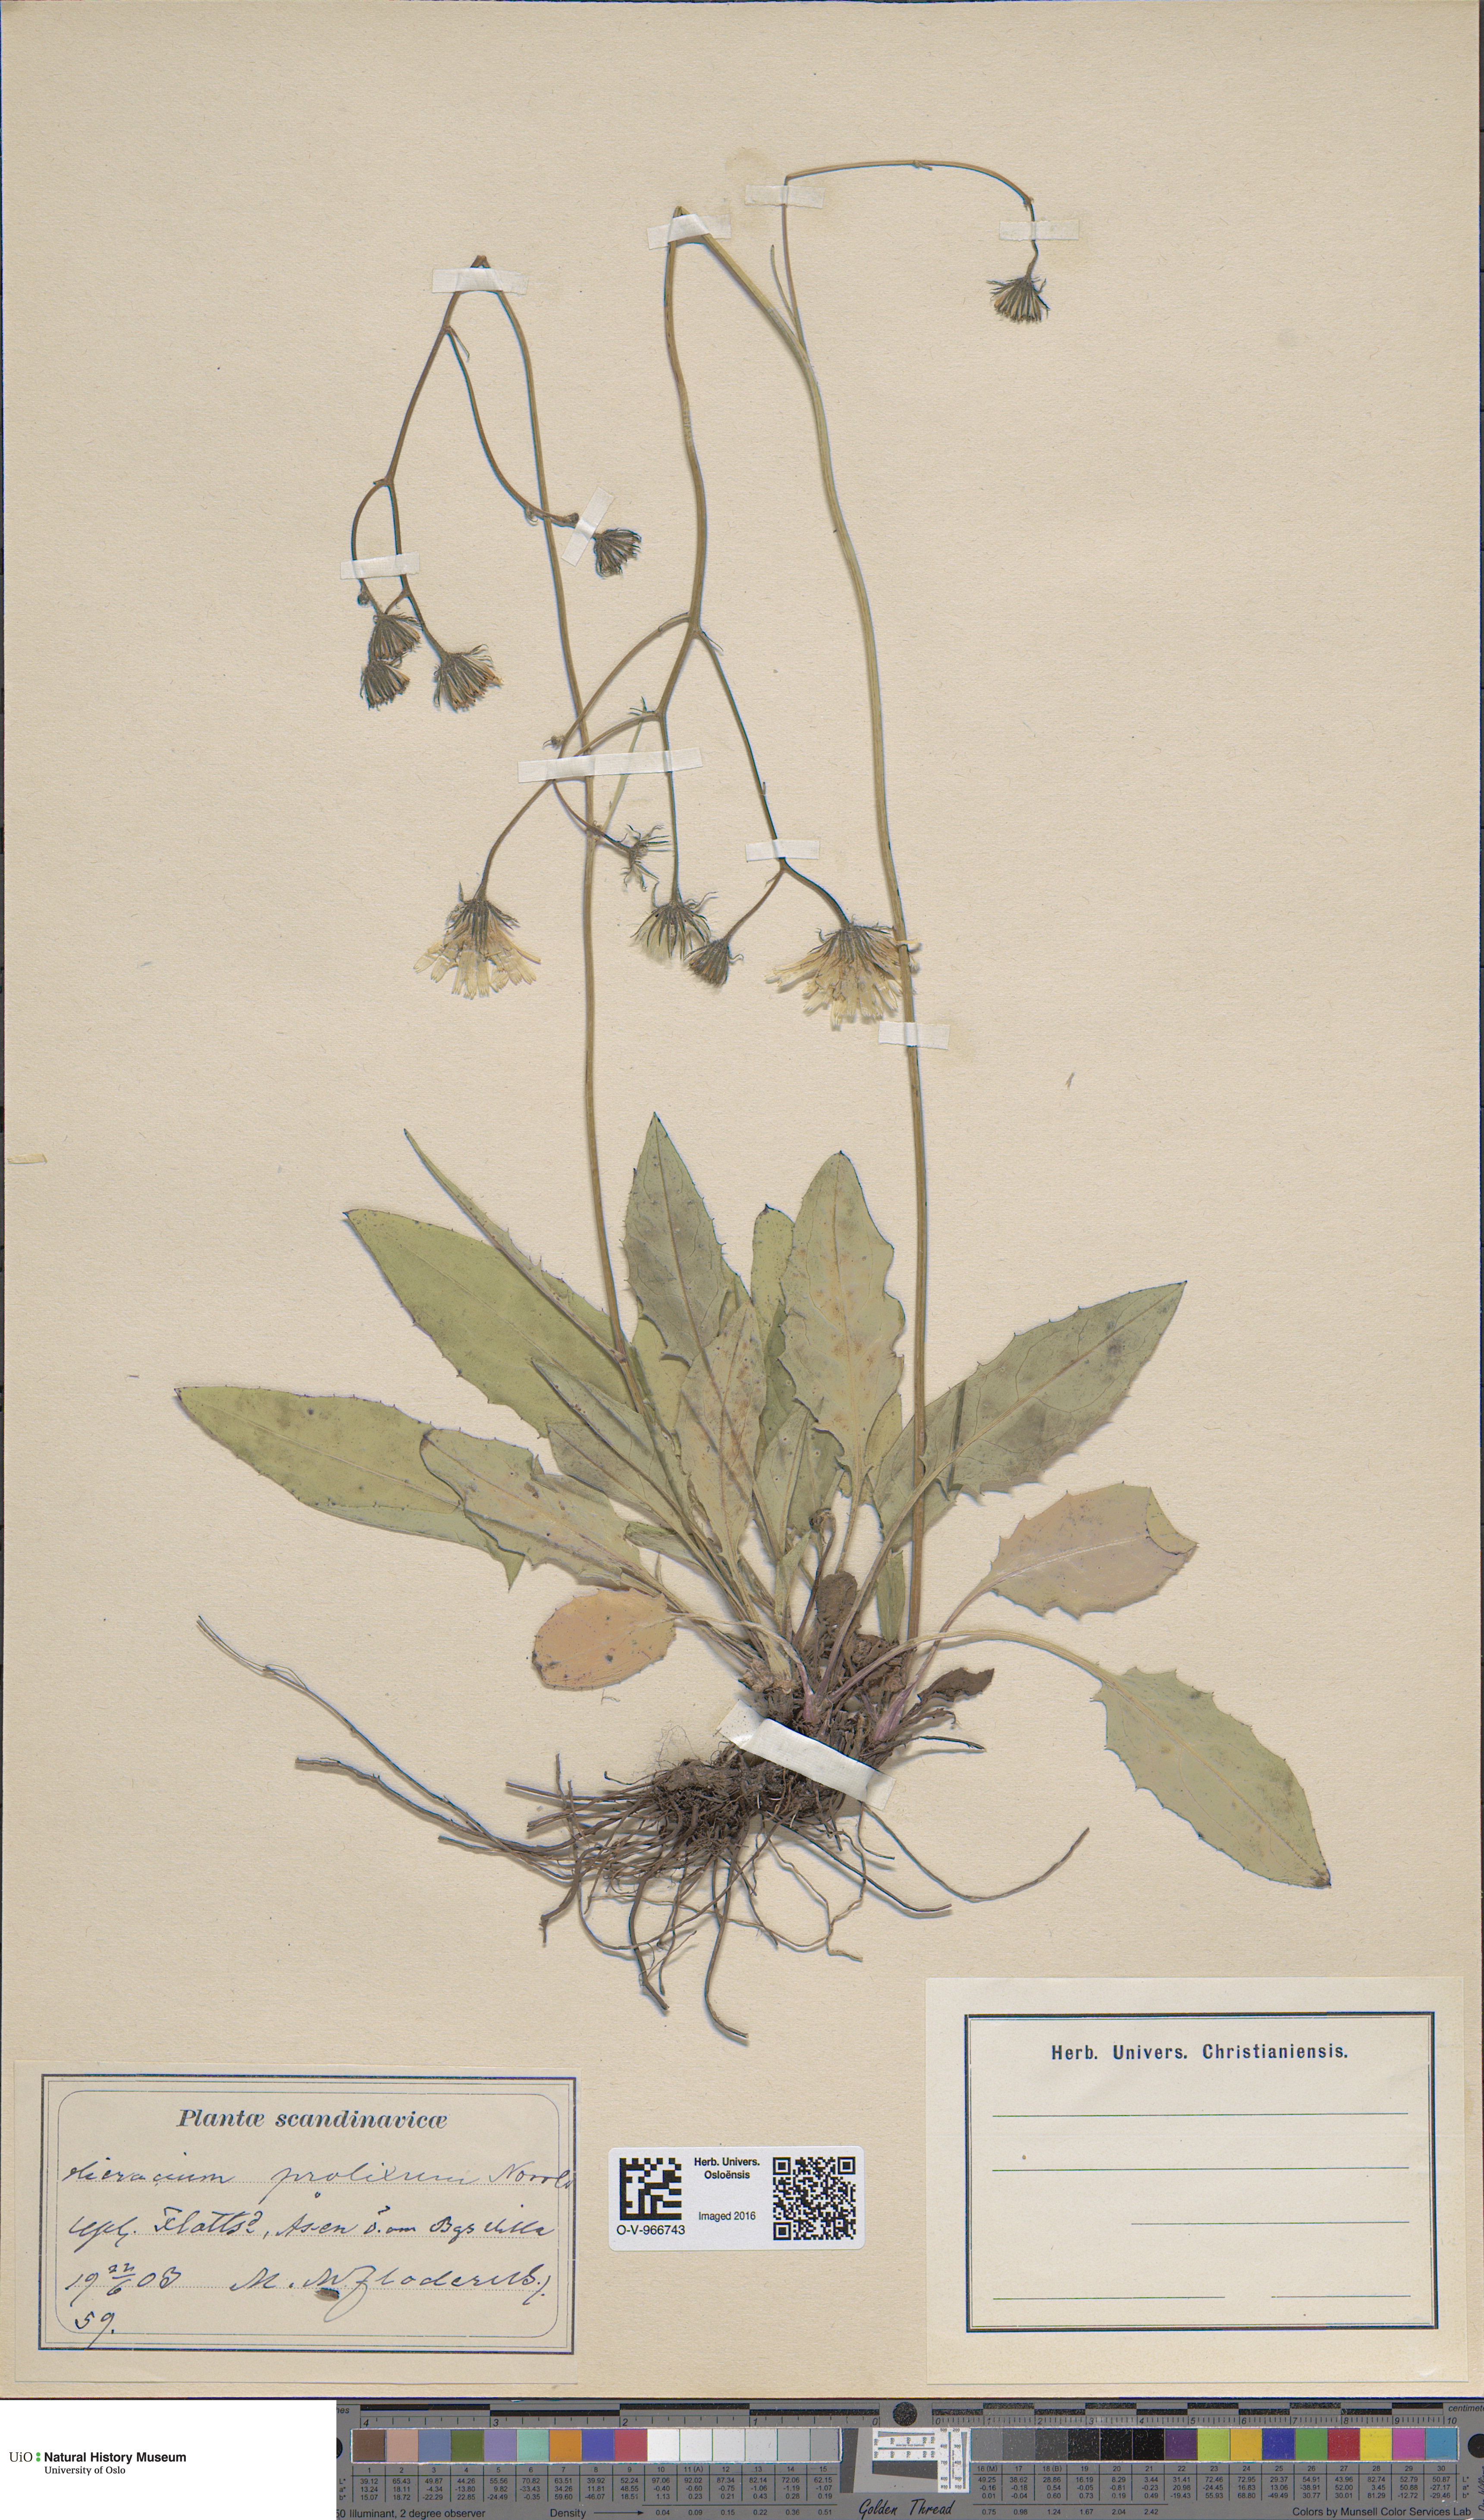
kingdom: Plantae
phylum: Tracheophyta
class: Magnoliopsida
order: Asterales
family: Asteraceae
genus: Hieracium
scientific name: Hieracium bifidum
